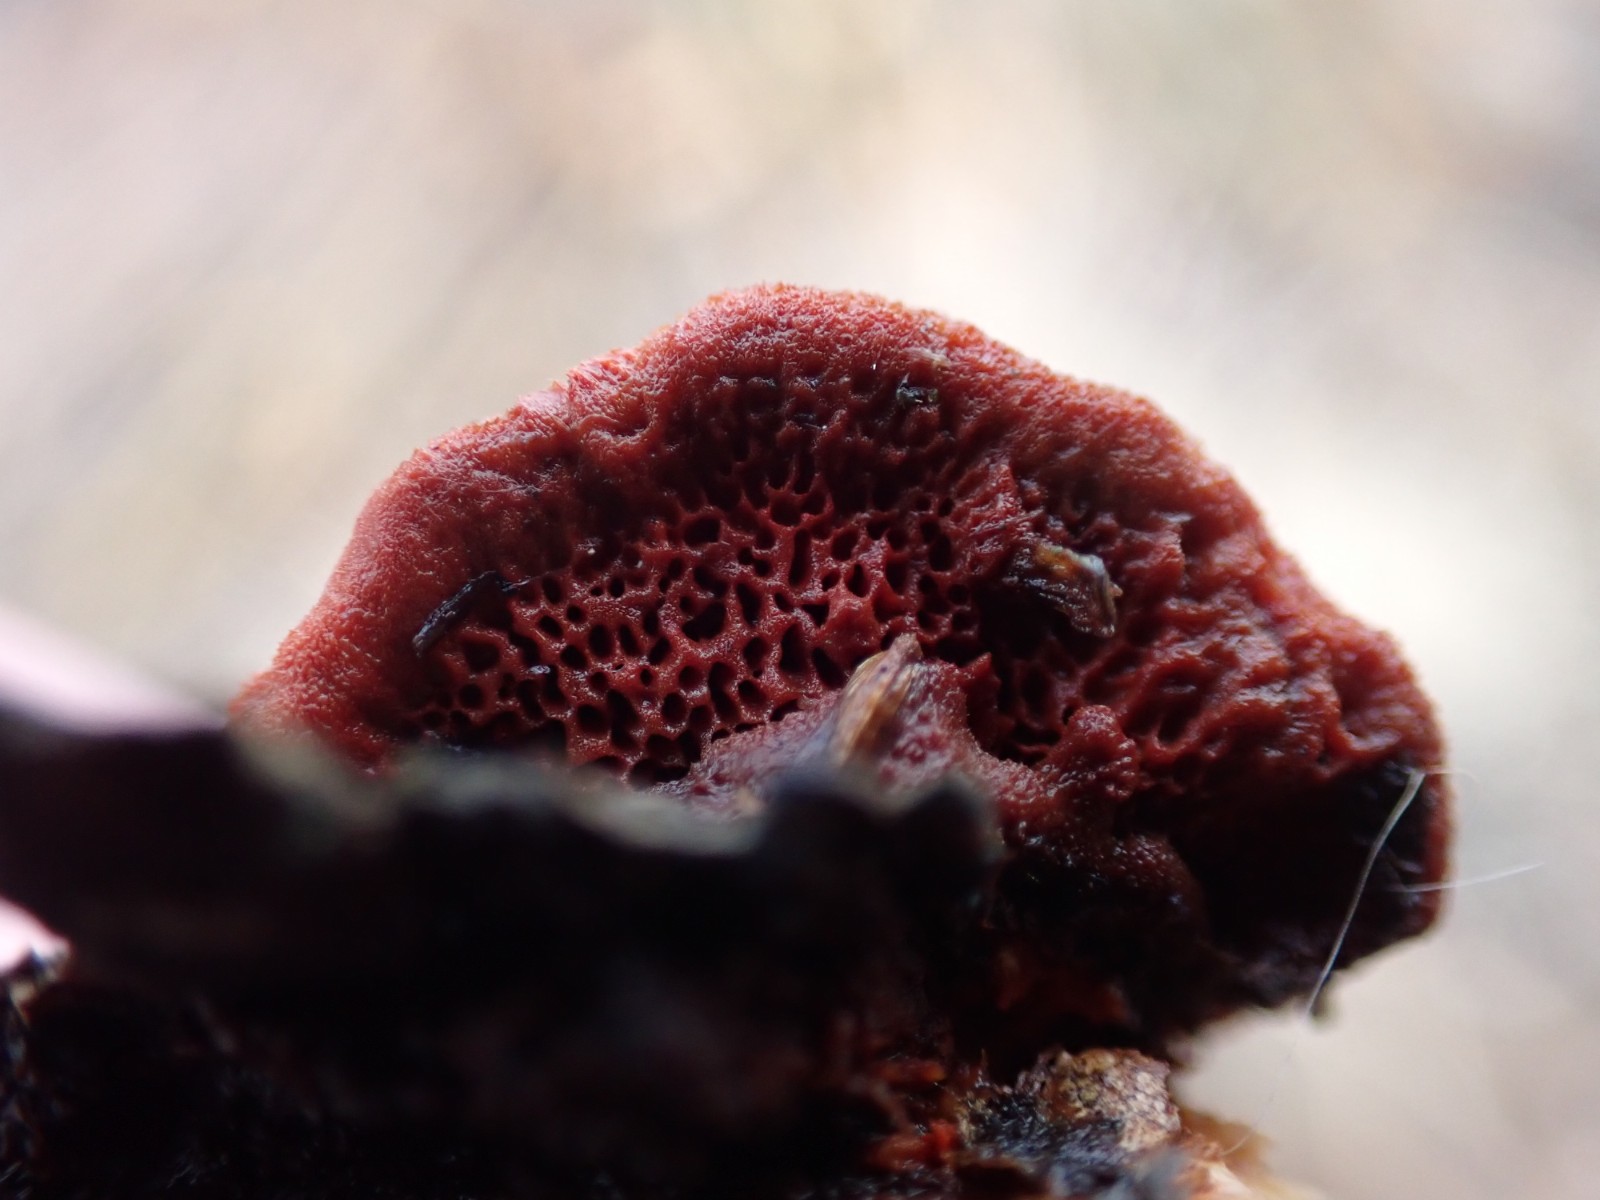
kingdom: Fungi
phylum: Basidiomycota
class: Agaricomycetes
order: Polyporales
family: Polyporaceae
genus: Trametes
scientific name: Trametes cinnabarina
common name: cinnoberporesvamp
